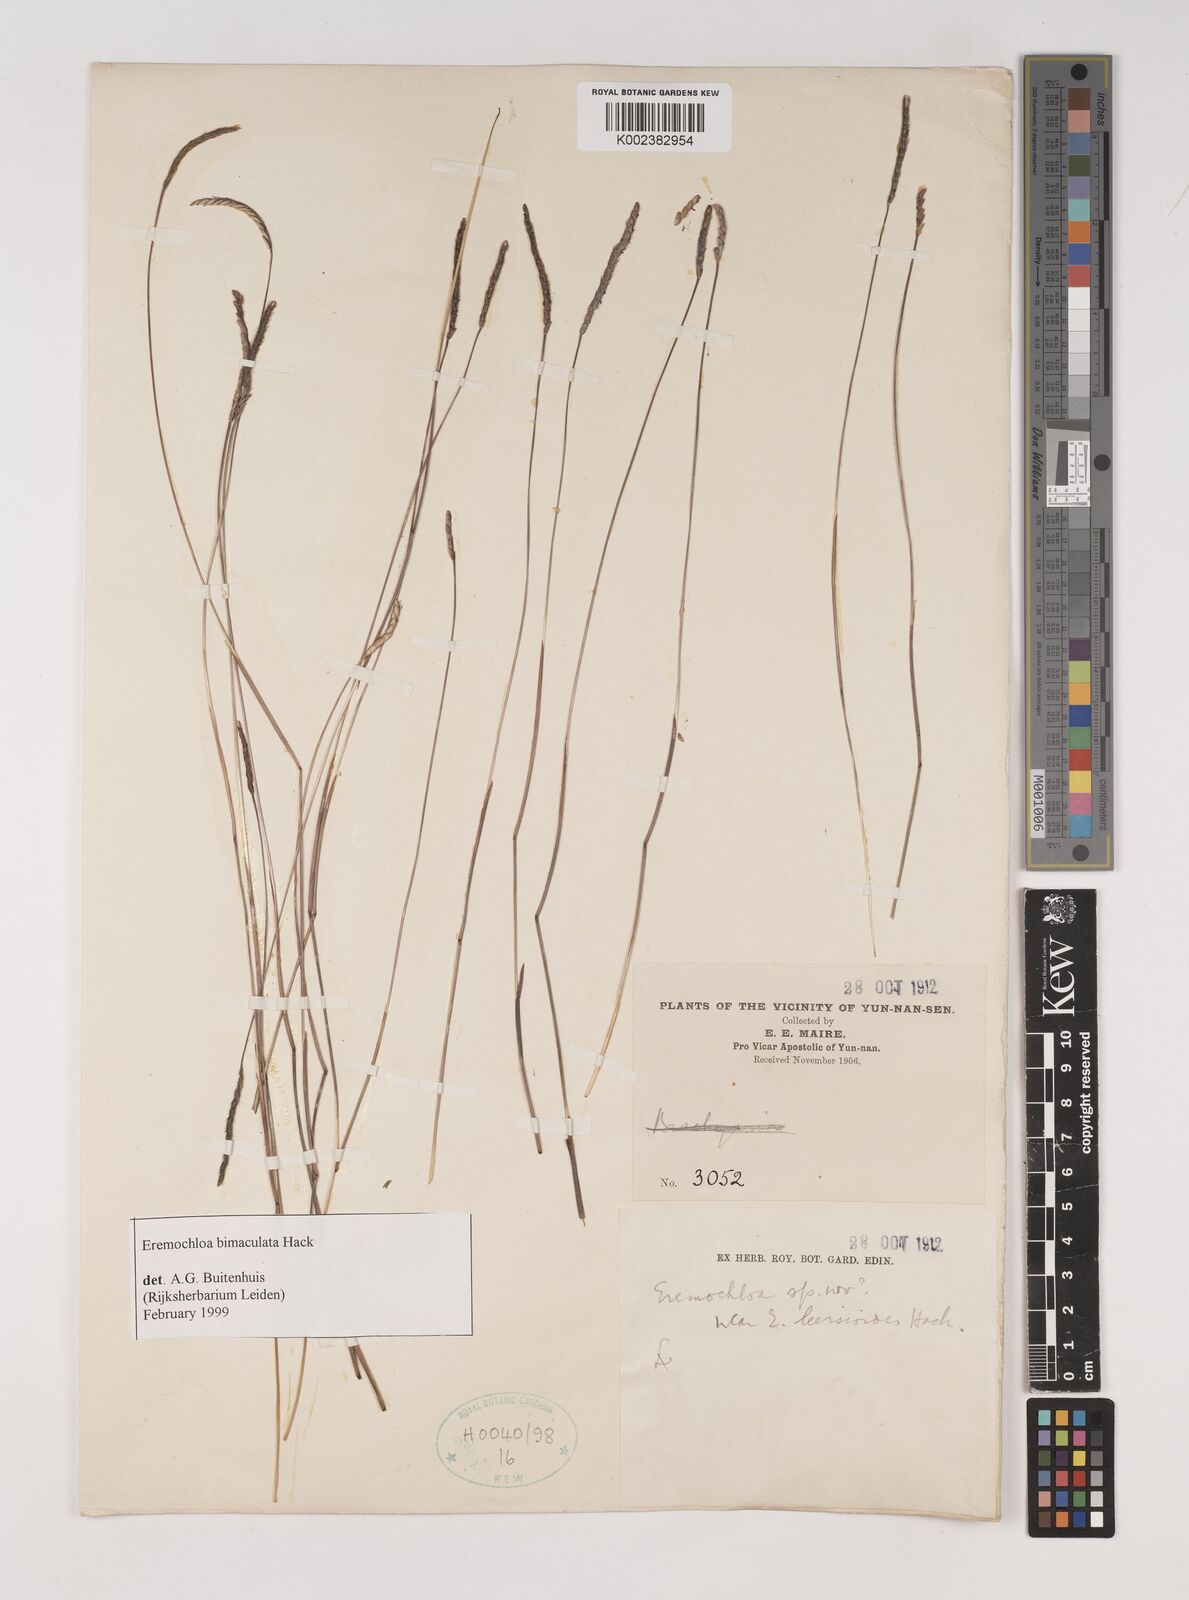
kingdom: Plantae
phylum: Tracheophyta
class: Liliopsida
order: Poales
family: Poaceae
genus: Eremochloa
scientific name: Eremochloa bimaculata
